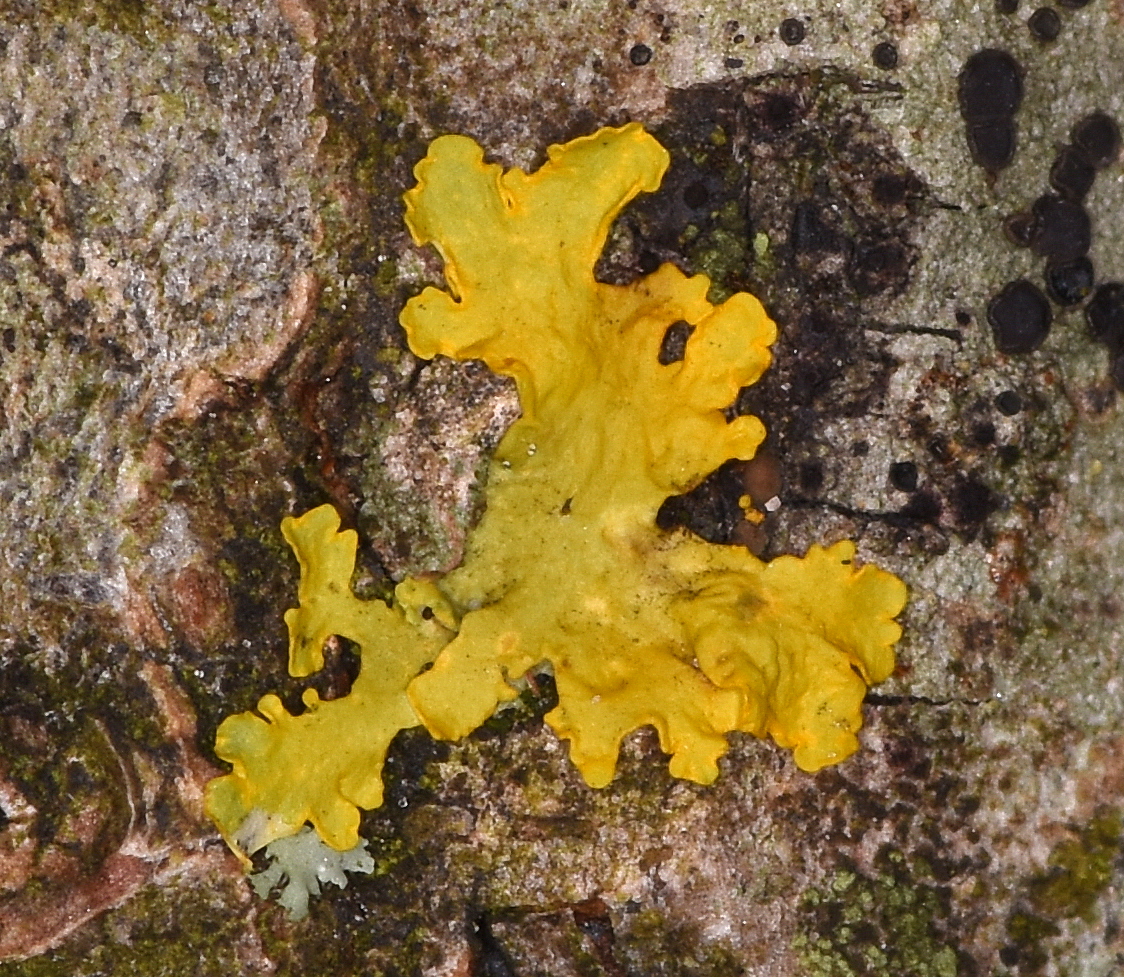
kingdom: Fungi
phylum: Ascomycota
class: Lecanoromycetes
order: Teloschistales
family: Teloschistaceae
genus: Xanthoria
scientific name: Xanthoria parietina
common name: almindelig væggelav
